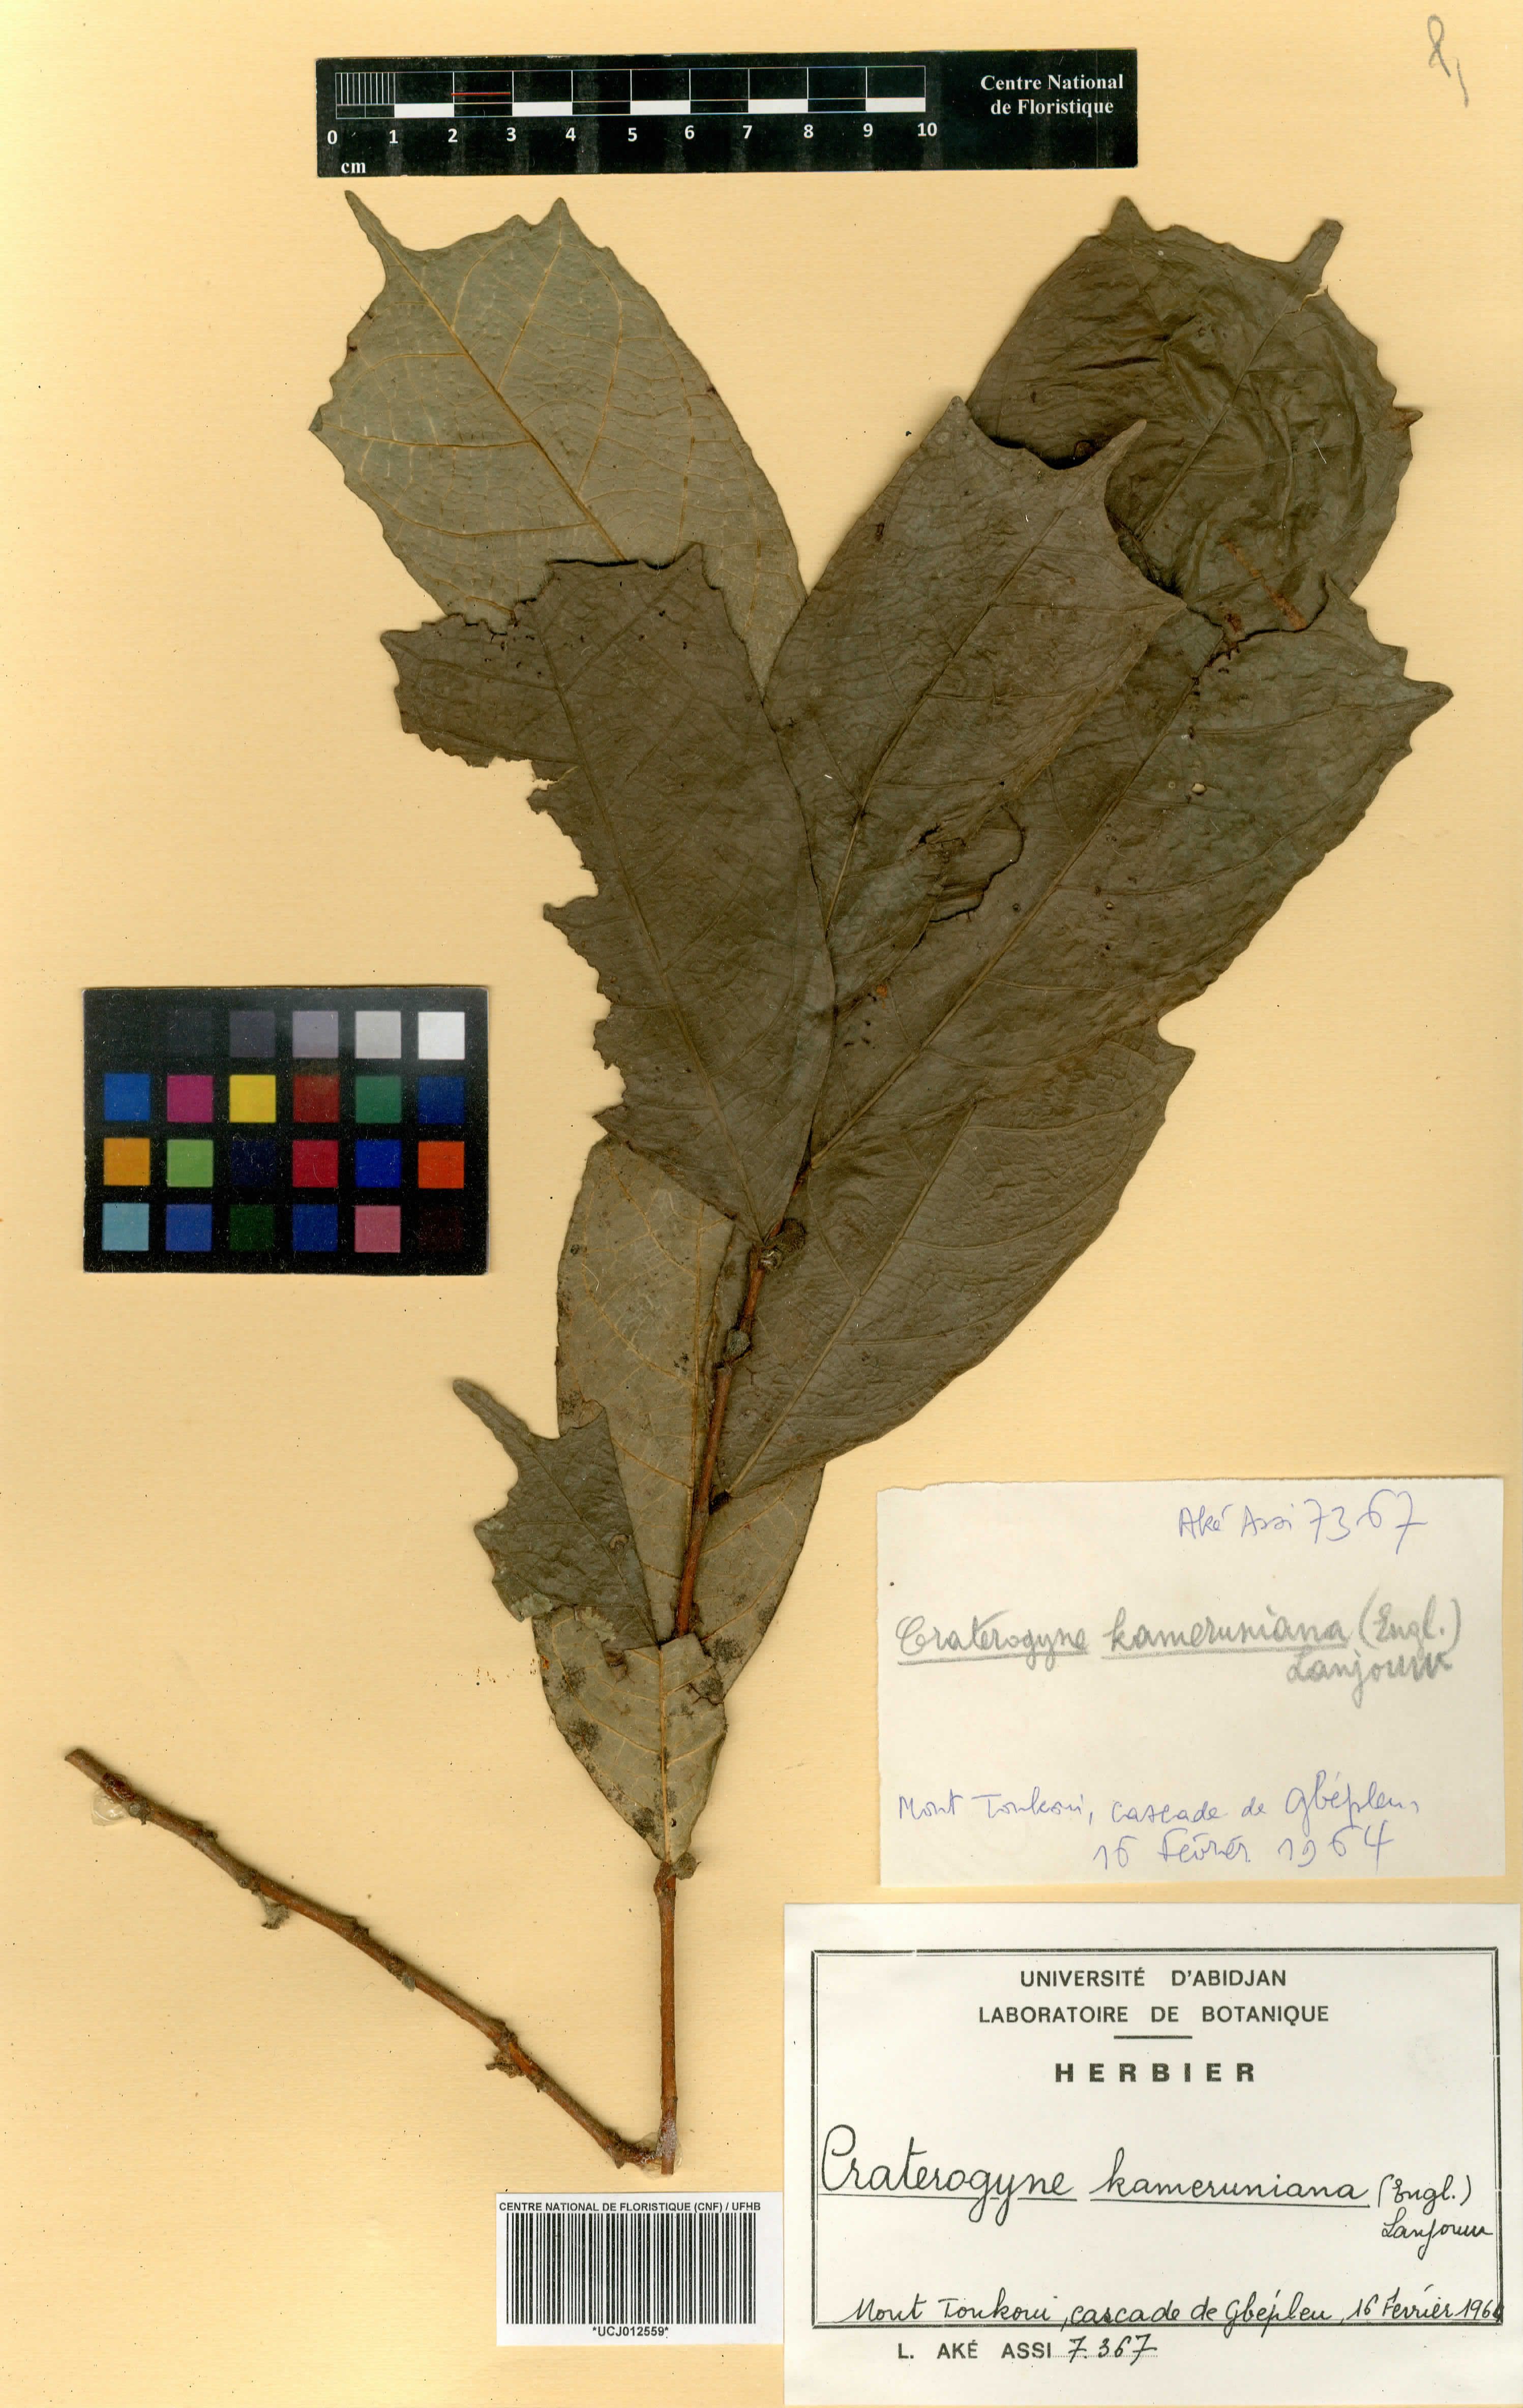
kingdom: Plantae
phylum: Tracheophyta
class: Magnoliopsida
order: Rosales
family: Moraceae
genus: Dorstenia
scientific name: Dorstenia kameruniana
